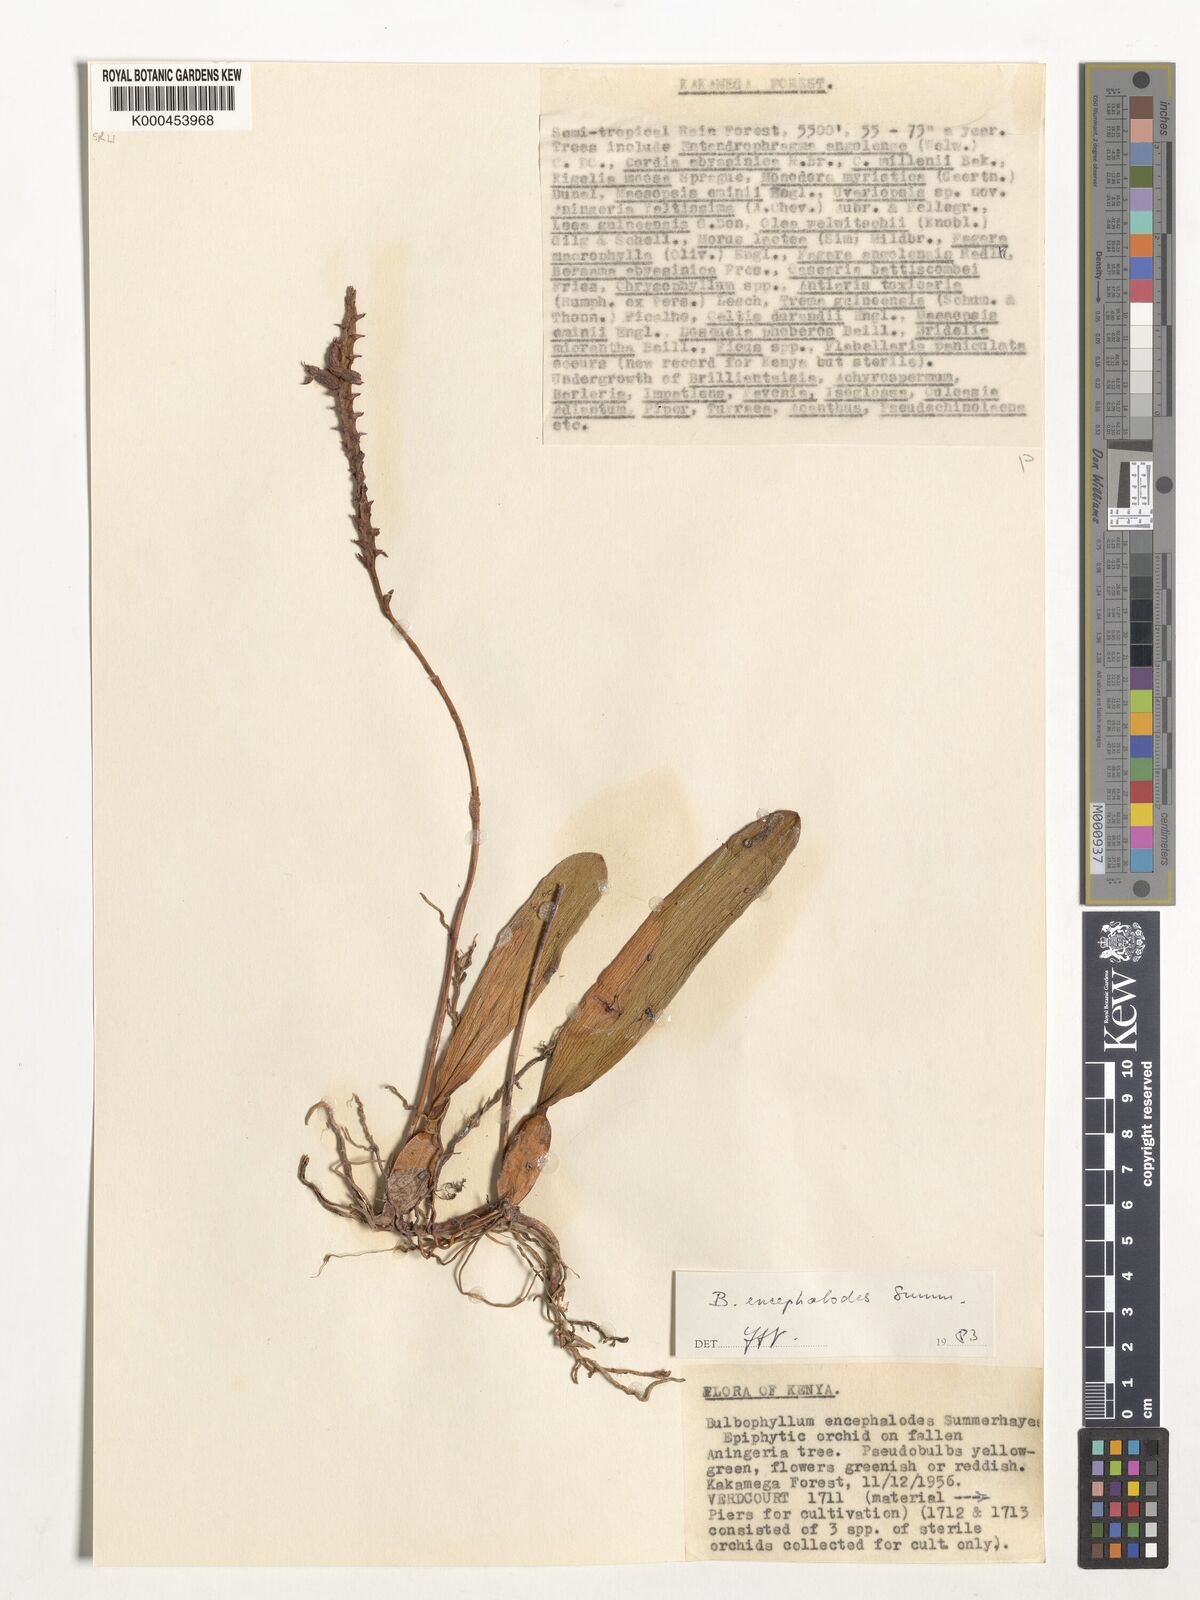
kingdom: Plantae
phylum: Tracheophyta
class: Liliopsida
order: Asparagales
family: Orchidaceae
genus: Bulbophyllum
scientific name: Bulbophyllum encephalodes
